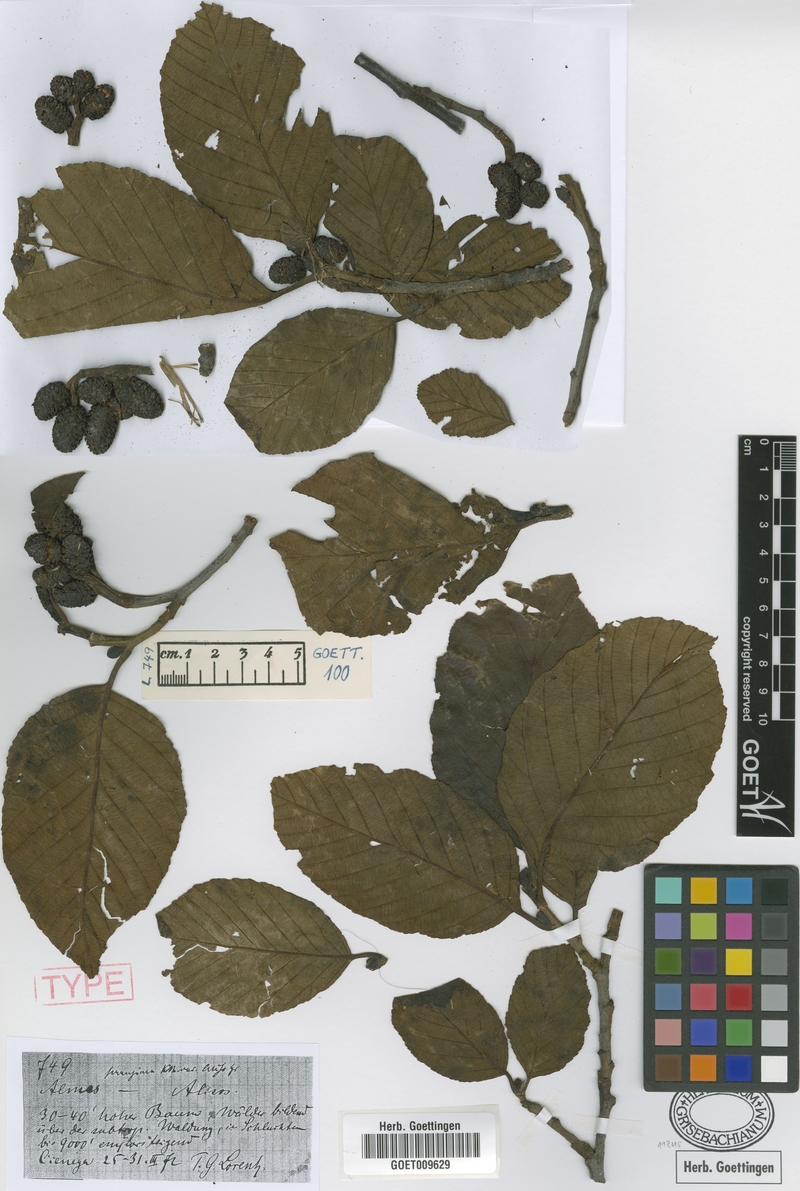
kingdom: Plantae
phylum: Tracheophyta
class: Magnoliopsida
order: Fagales
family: Betulaceae
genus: Alnus
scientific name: Alnus acuminata
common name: Alder
